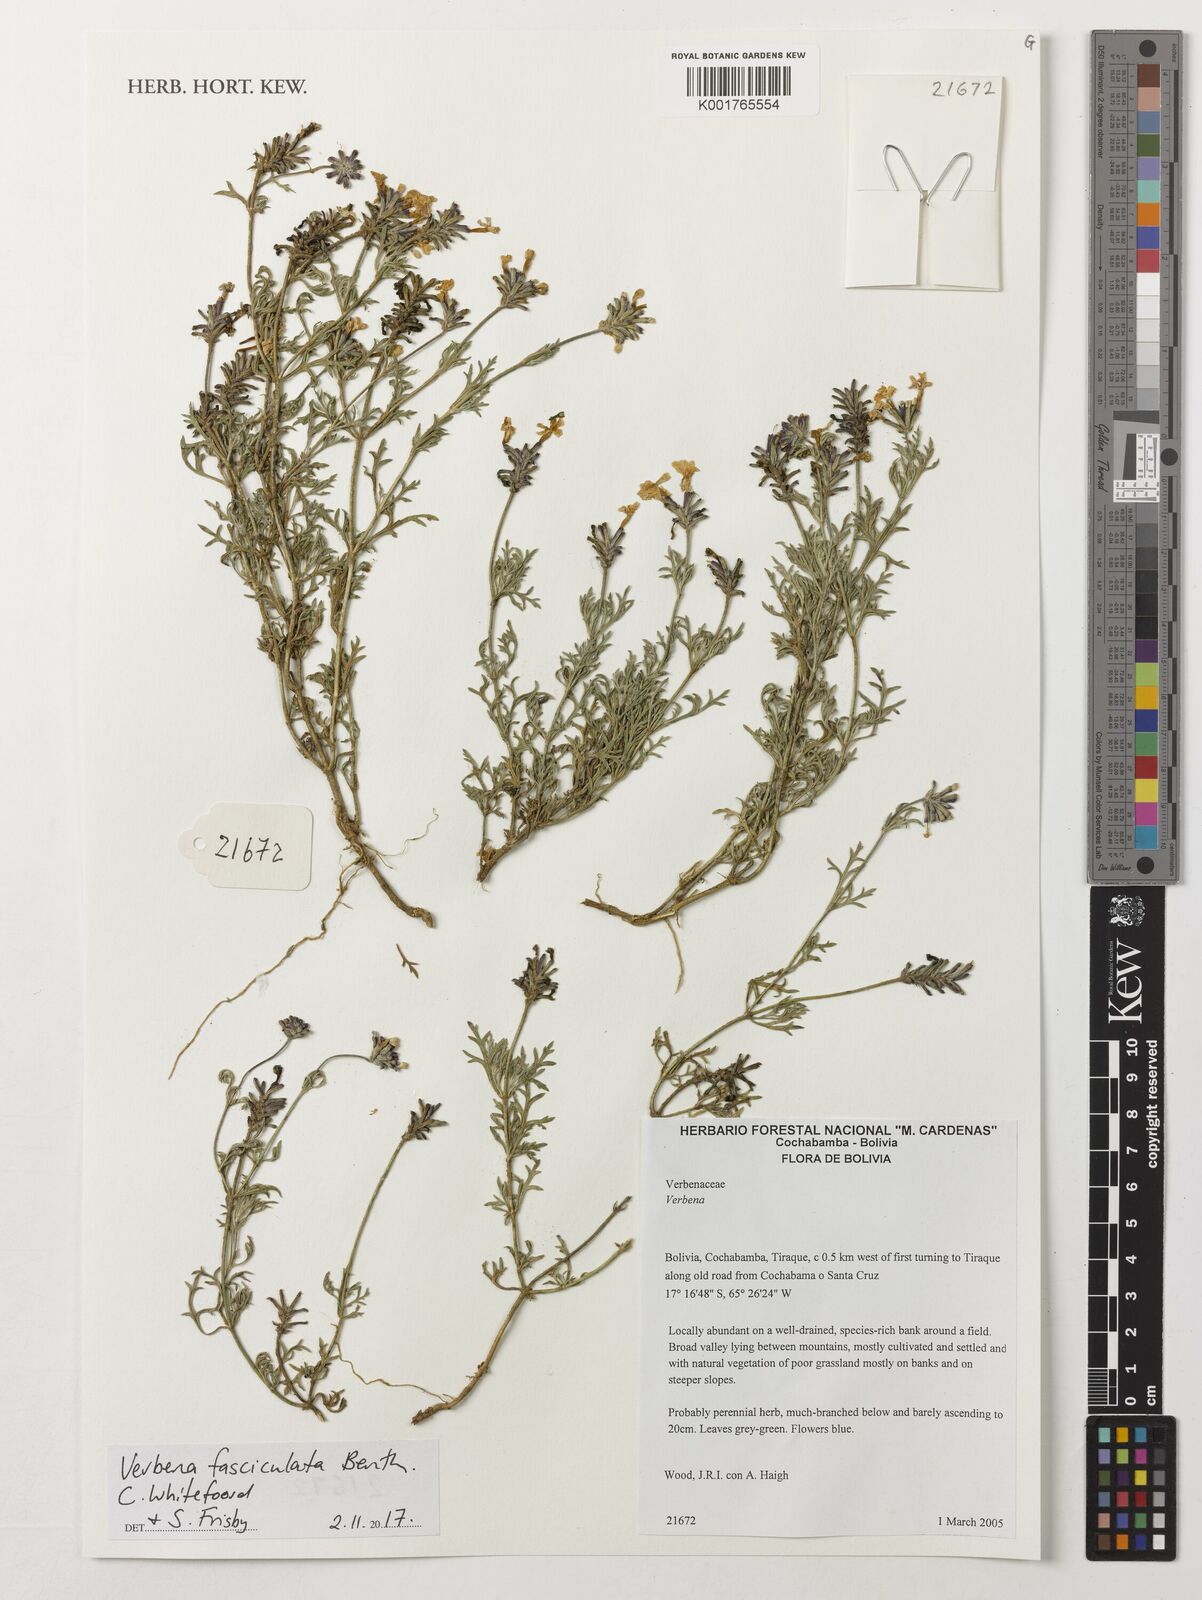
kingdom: Plantae
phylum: Tracheophyta
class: Magnoliopsida
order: Lamiales
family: Verbenaceae
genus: Junellia
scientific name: Junellia fasciculata
